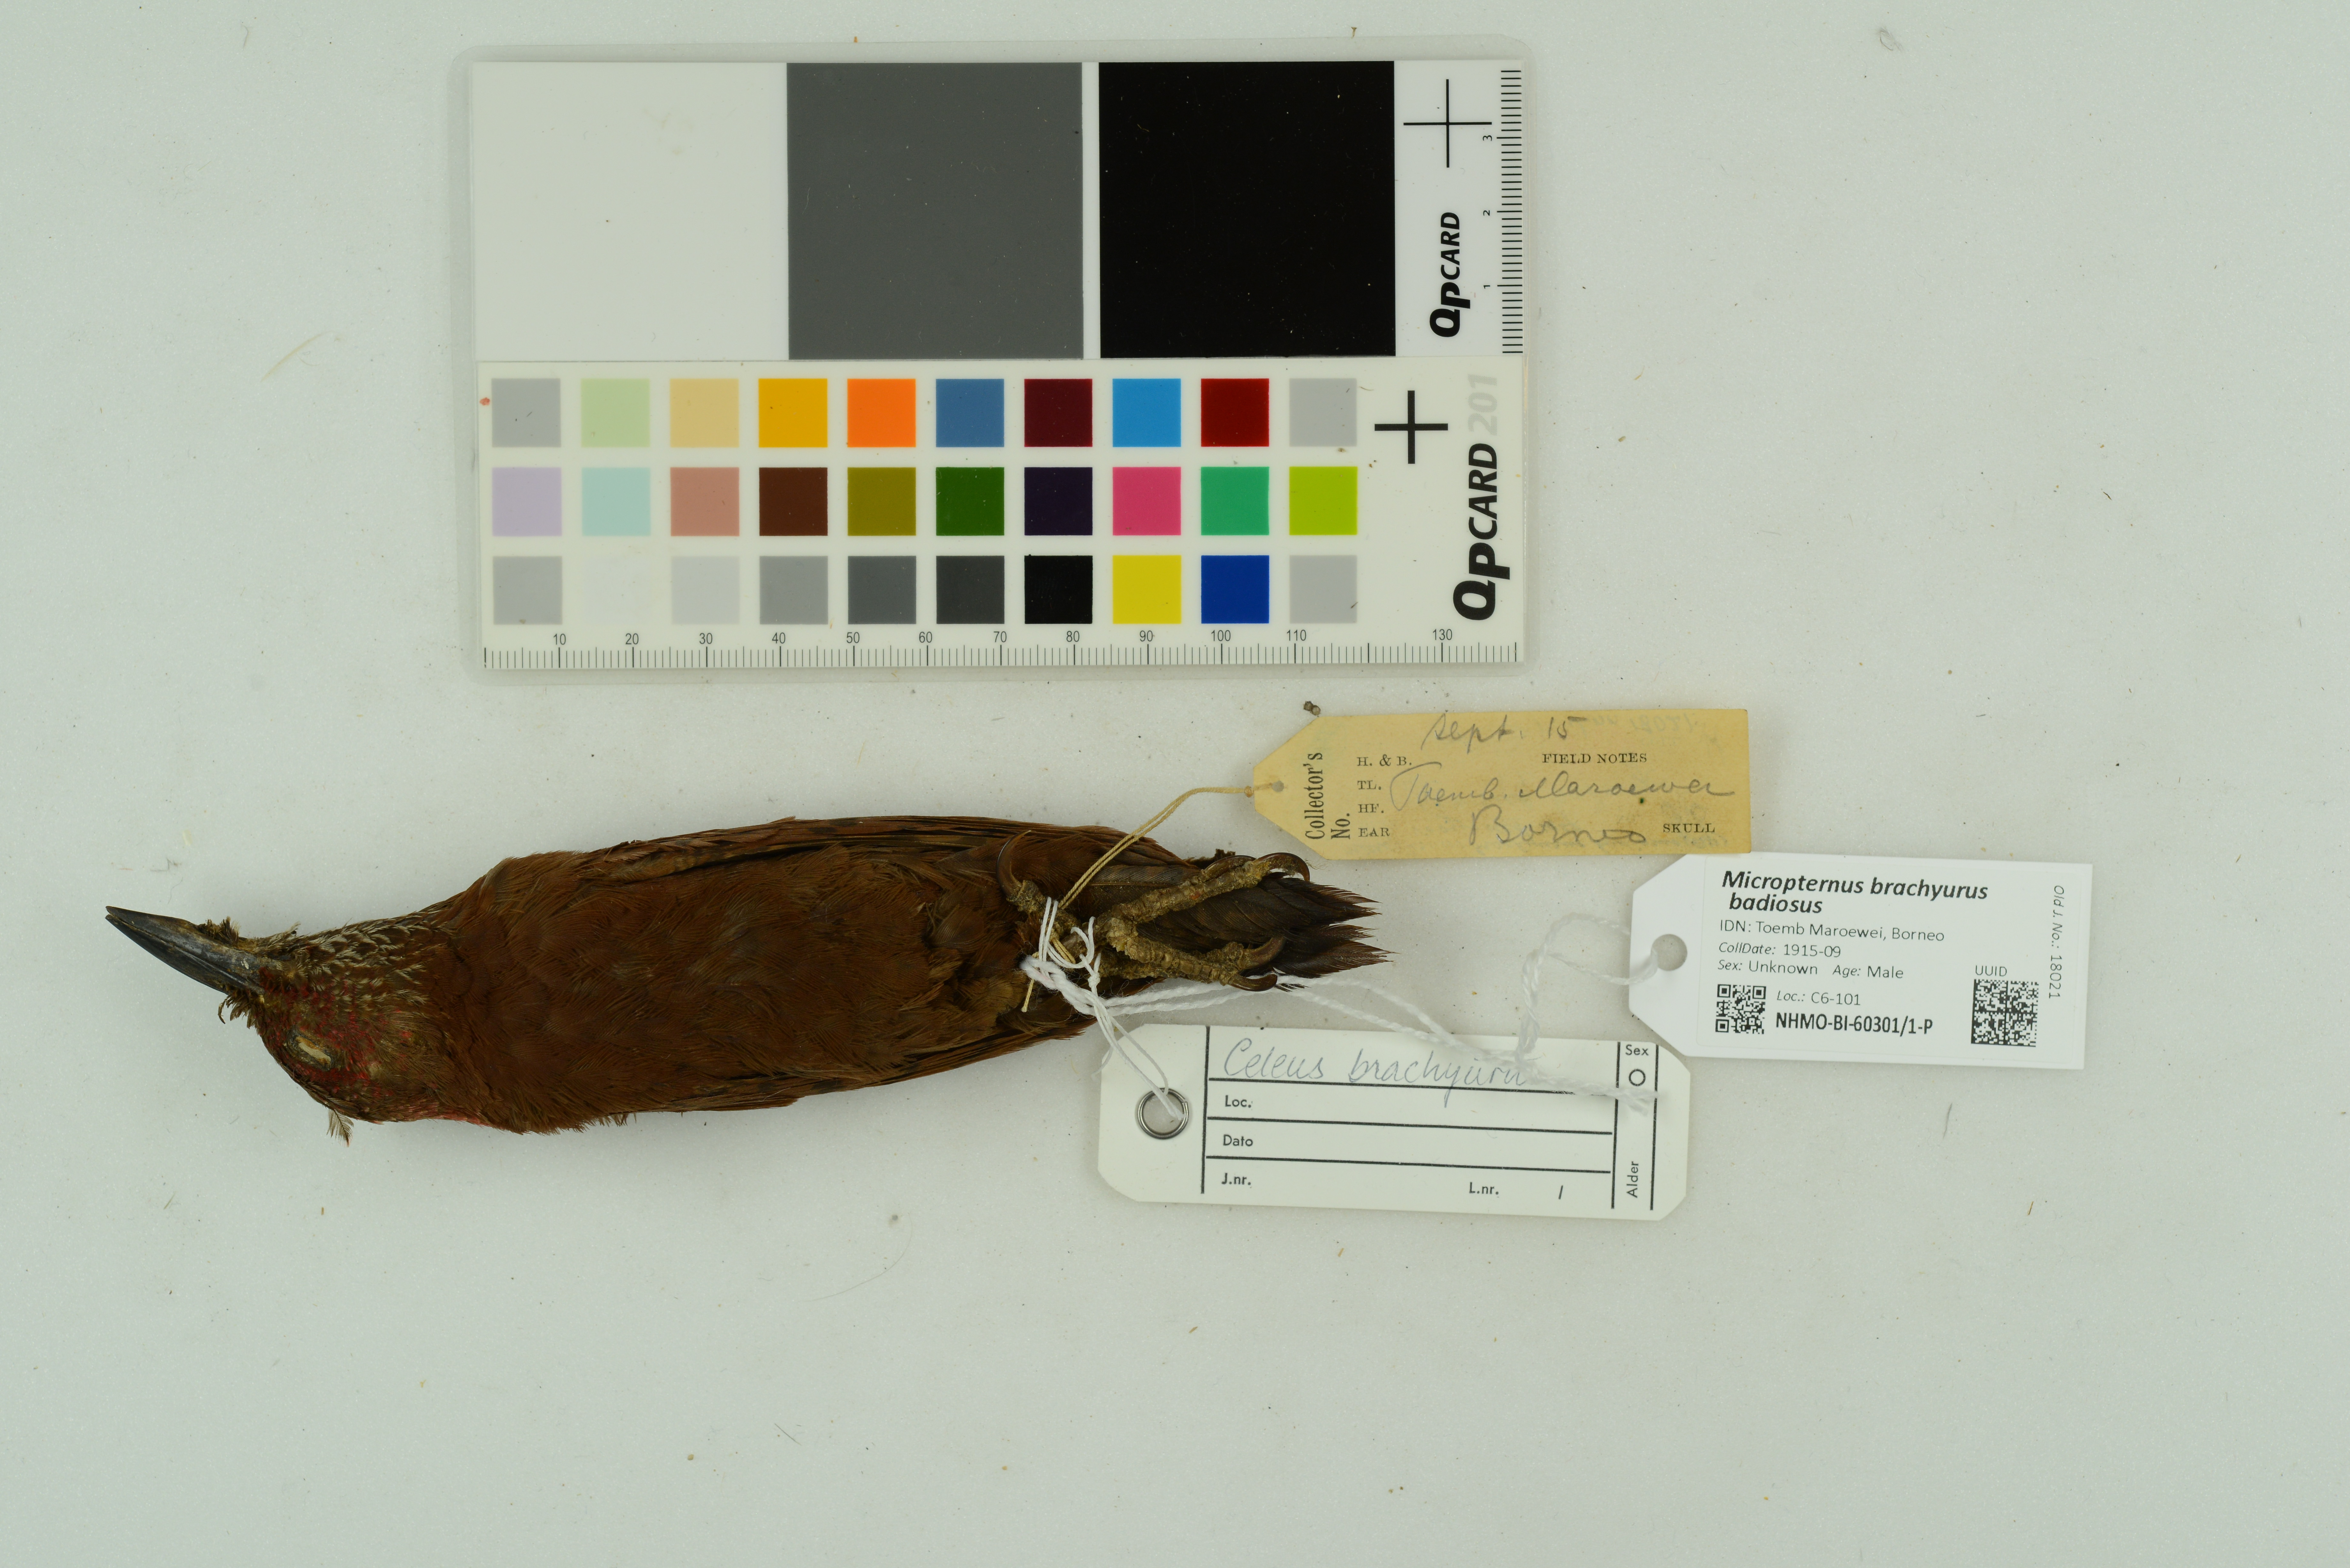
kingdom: Animalia
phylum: Chordata
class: Aves
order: Piciformes
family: Picidae
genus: Micropternus
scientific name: Micropternus brachyurus
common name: Rufous woodpecker
